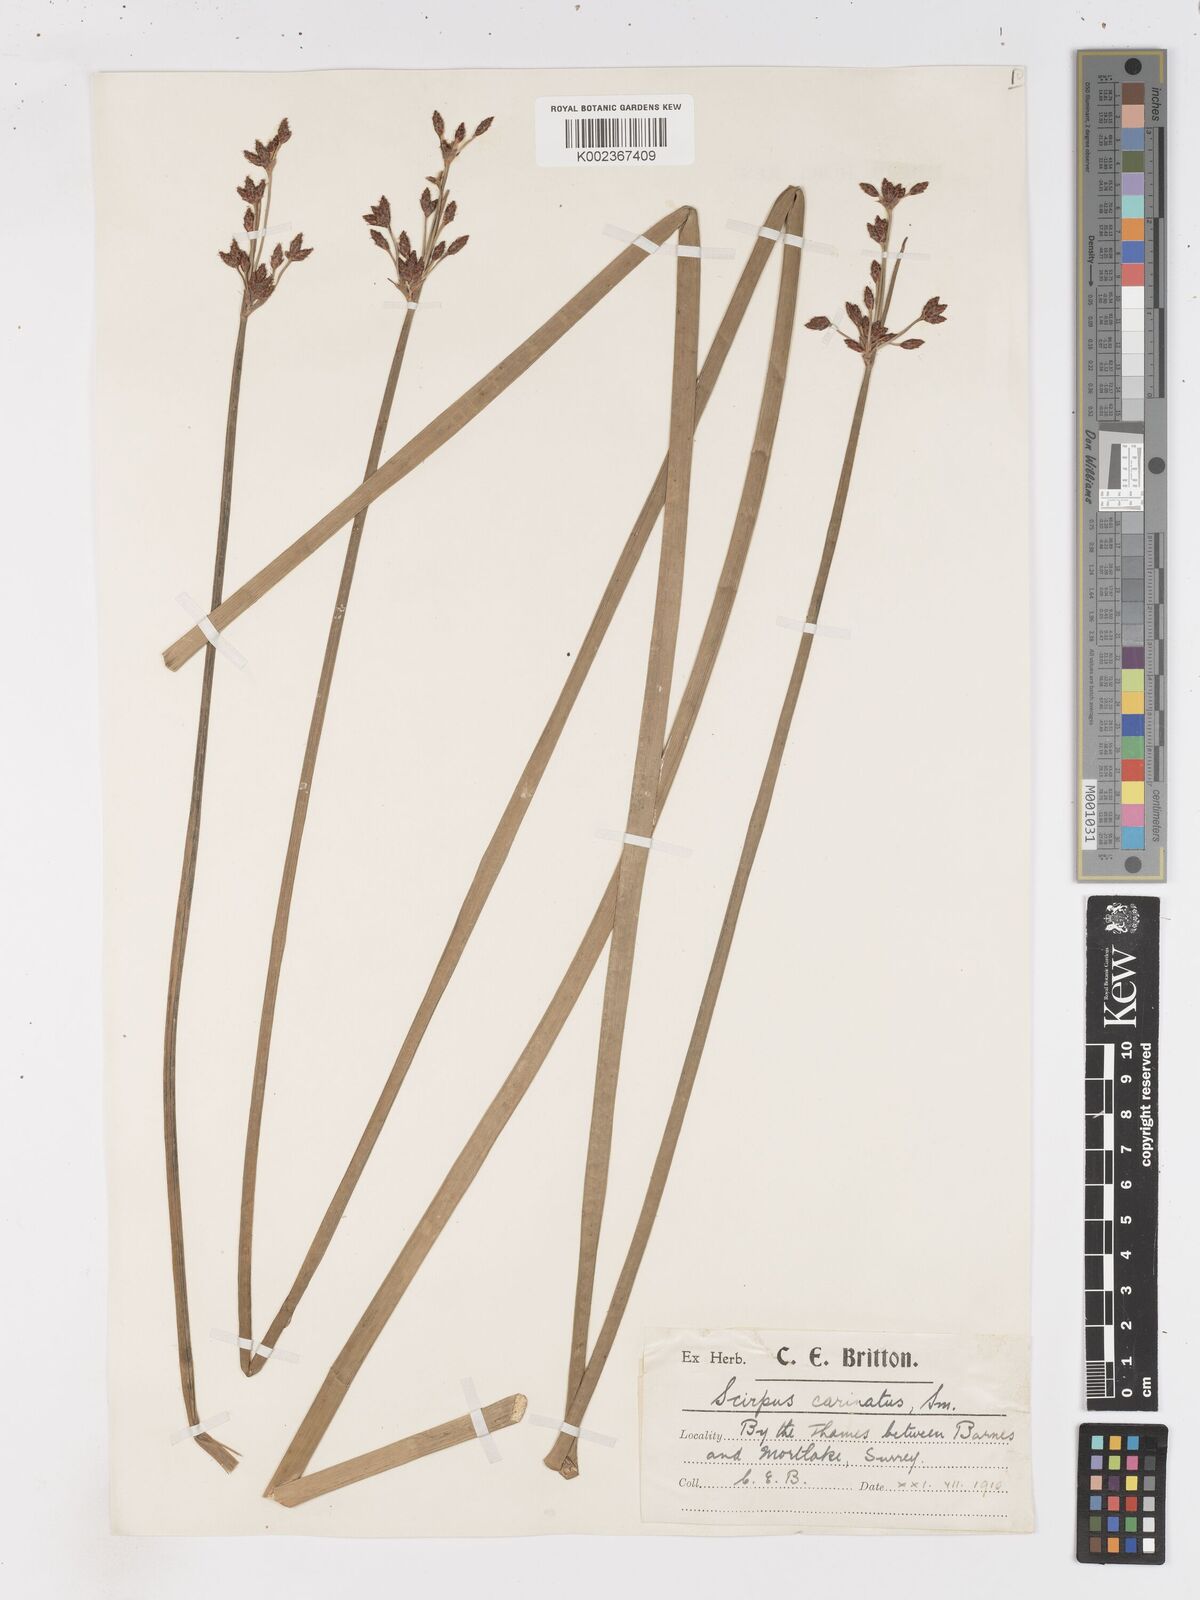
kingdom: Plantae
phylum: Tracheophyta
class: Liliopsida
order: Poales
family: Cyperaceae
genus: Isolepis
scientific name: Isolepis carinata
